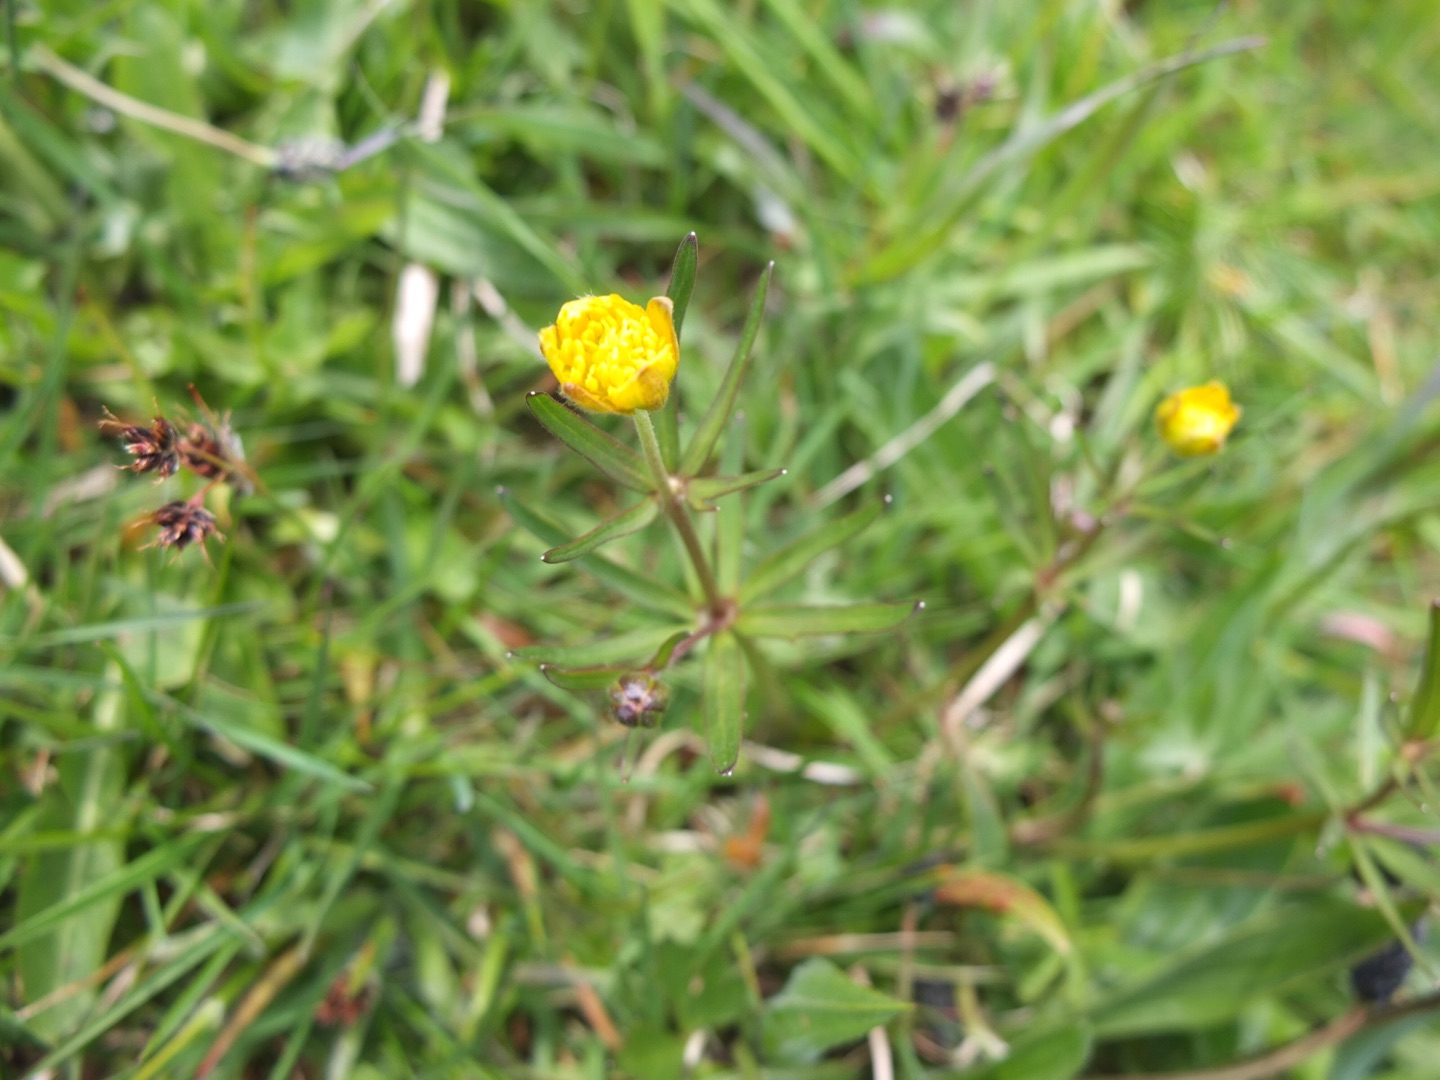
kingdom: Plantae
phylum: Tracheophyta
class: Magnoliopsida
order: Ranunculales
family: Ranunculaceae
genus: Ranunculus
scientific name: Ranunculus auricomus
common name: Nyrebladet ranunkel
